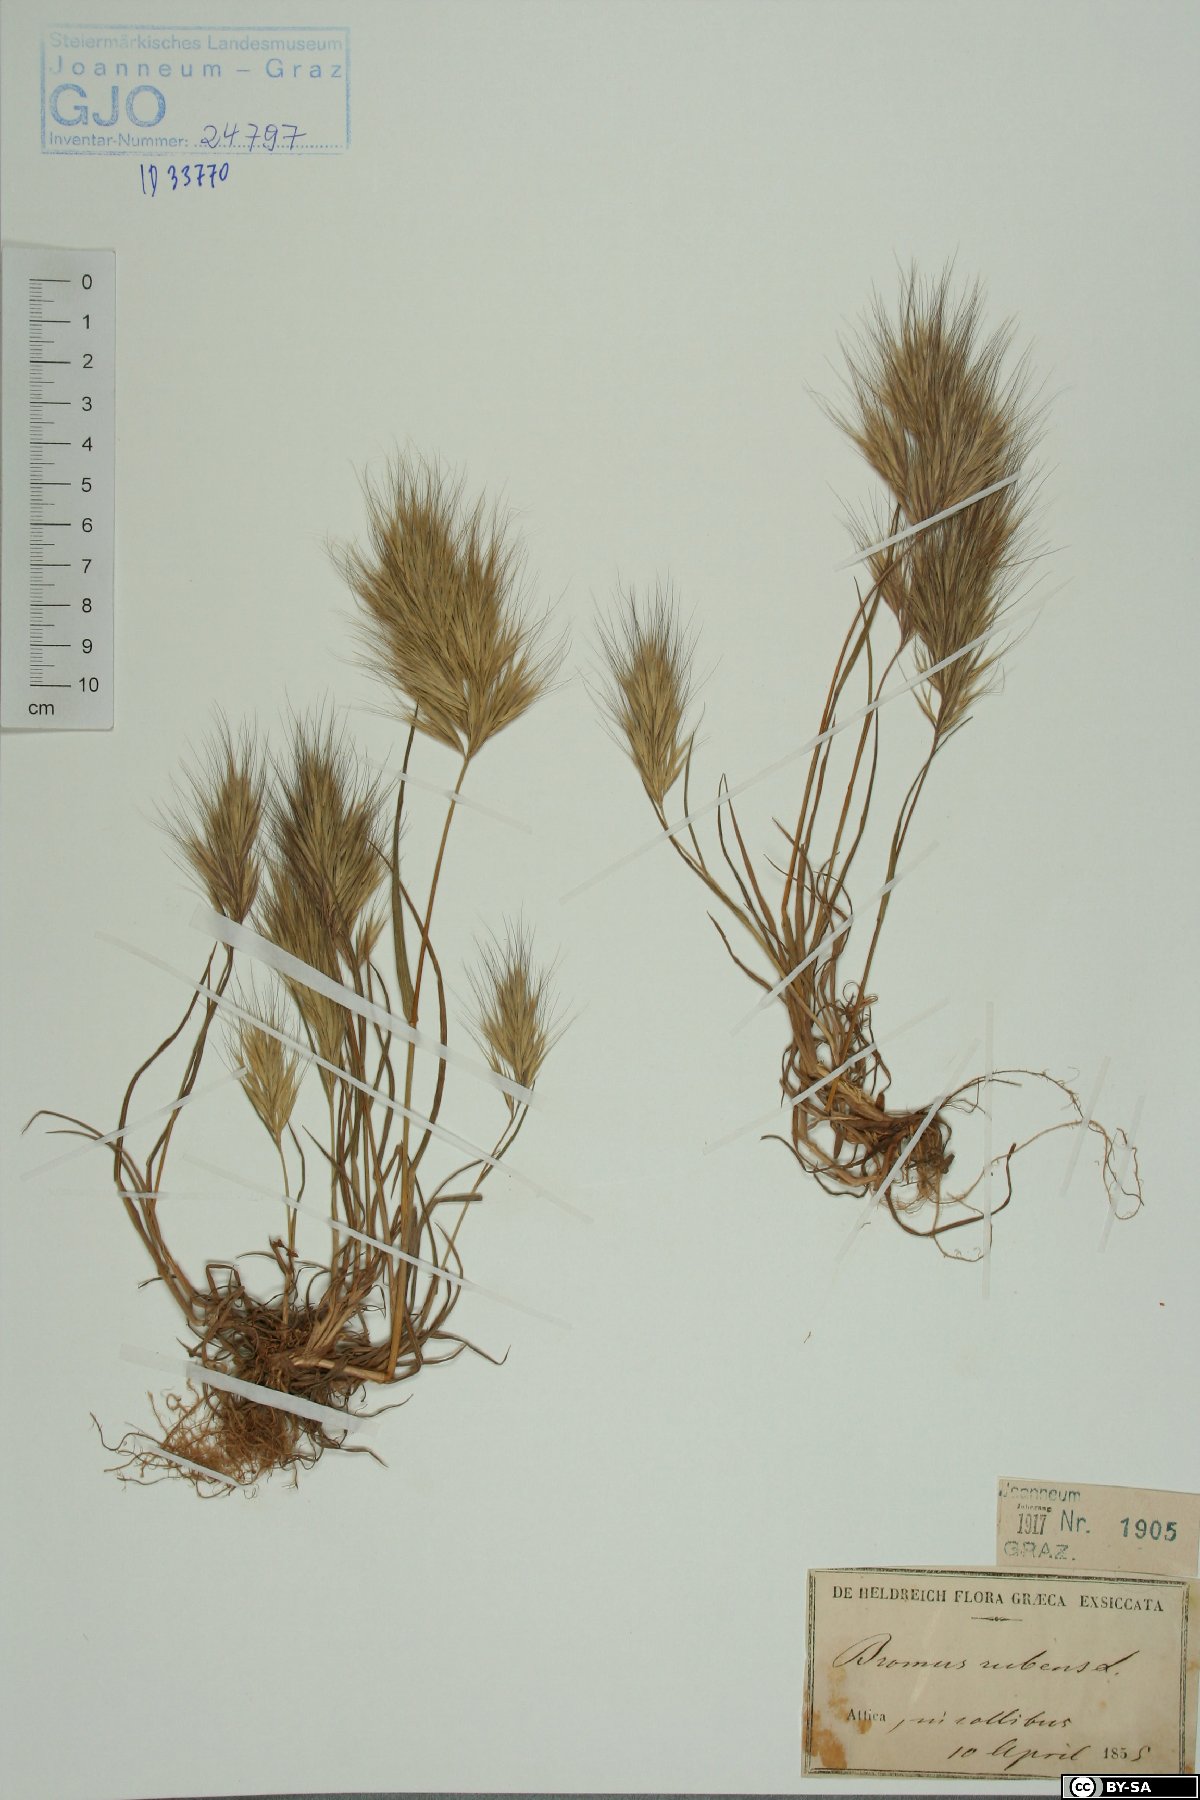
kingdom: Plantae
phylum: Tracheophyta
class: Liliopsida
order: Poales
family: Poaceae
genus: Bromus
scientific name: Bromus rubens
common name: Red brome
